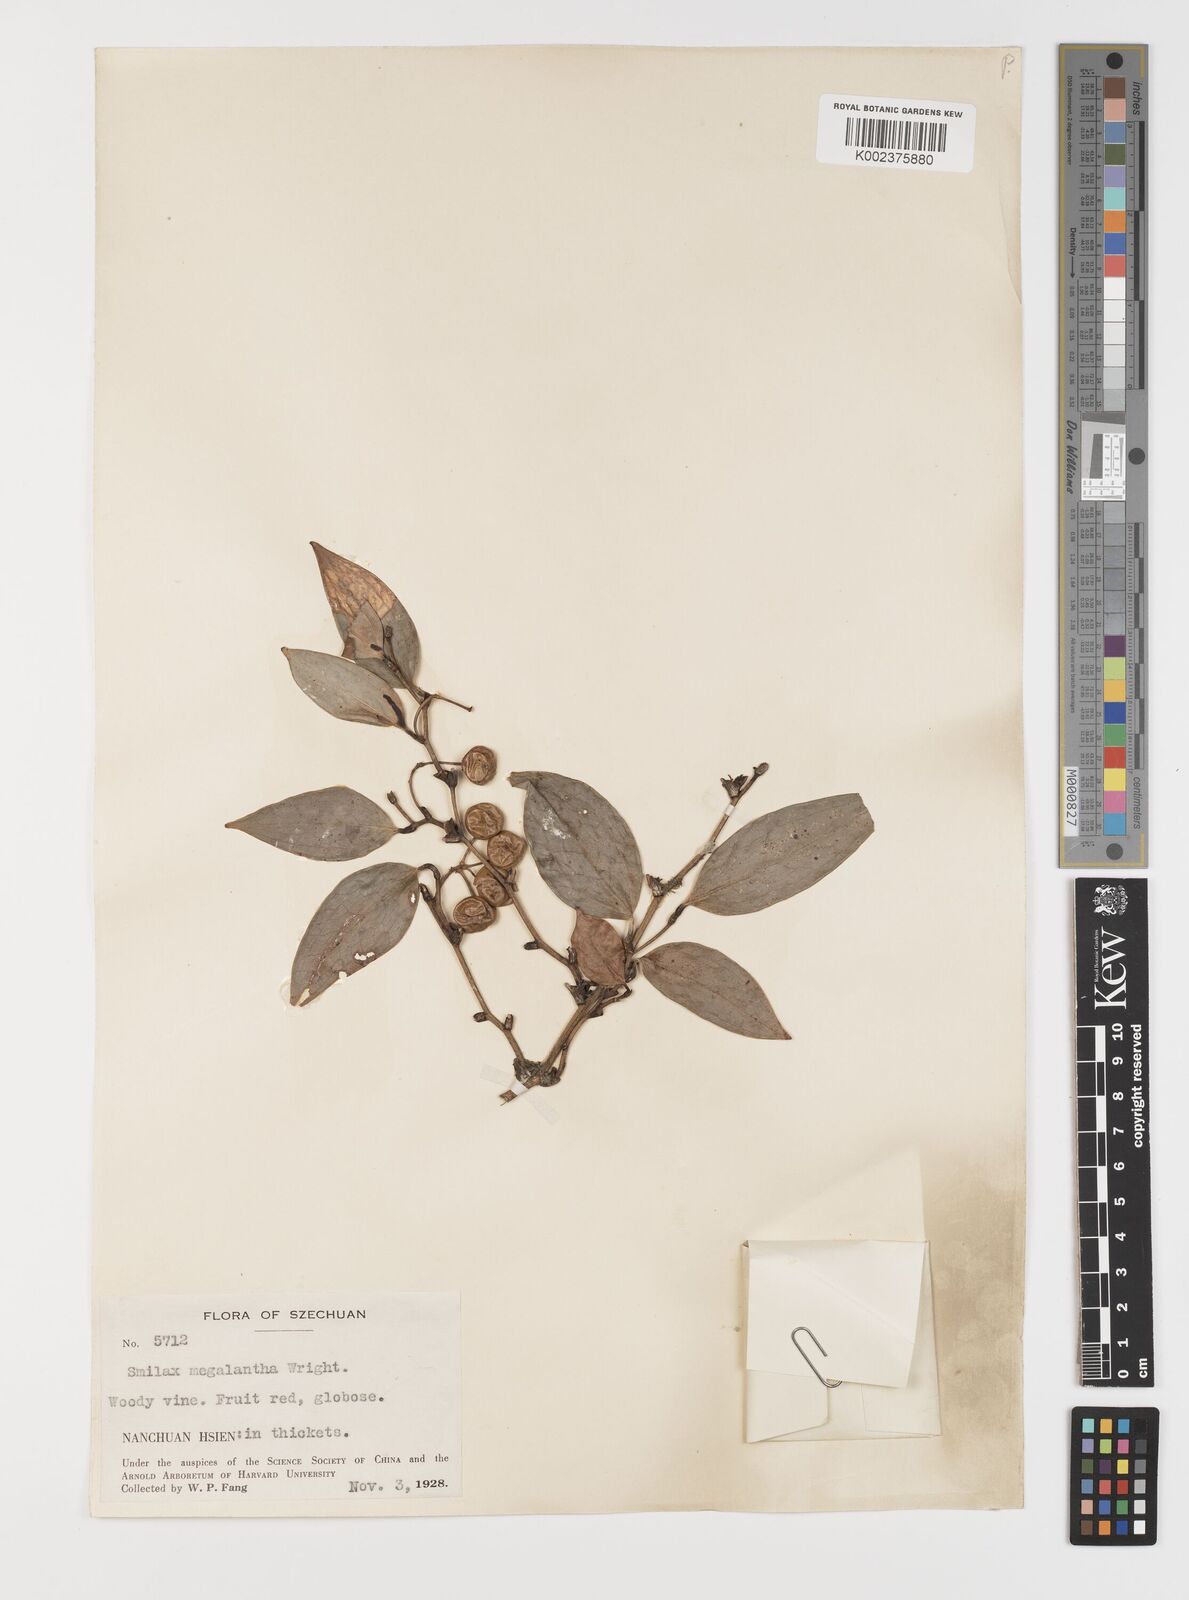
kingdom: Plantae
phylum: Tracheophyta
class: Liliopsida
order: Liliales
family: Smilacaceae
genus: Smilax
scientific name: Smilax megalantha
